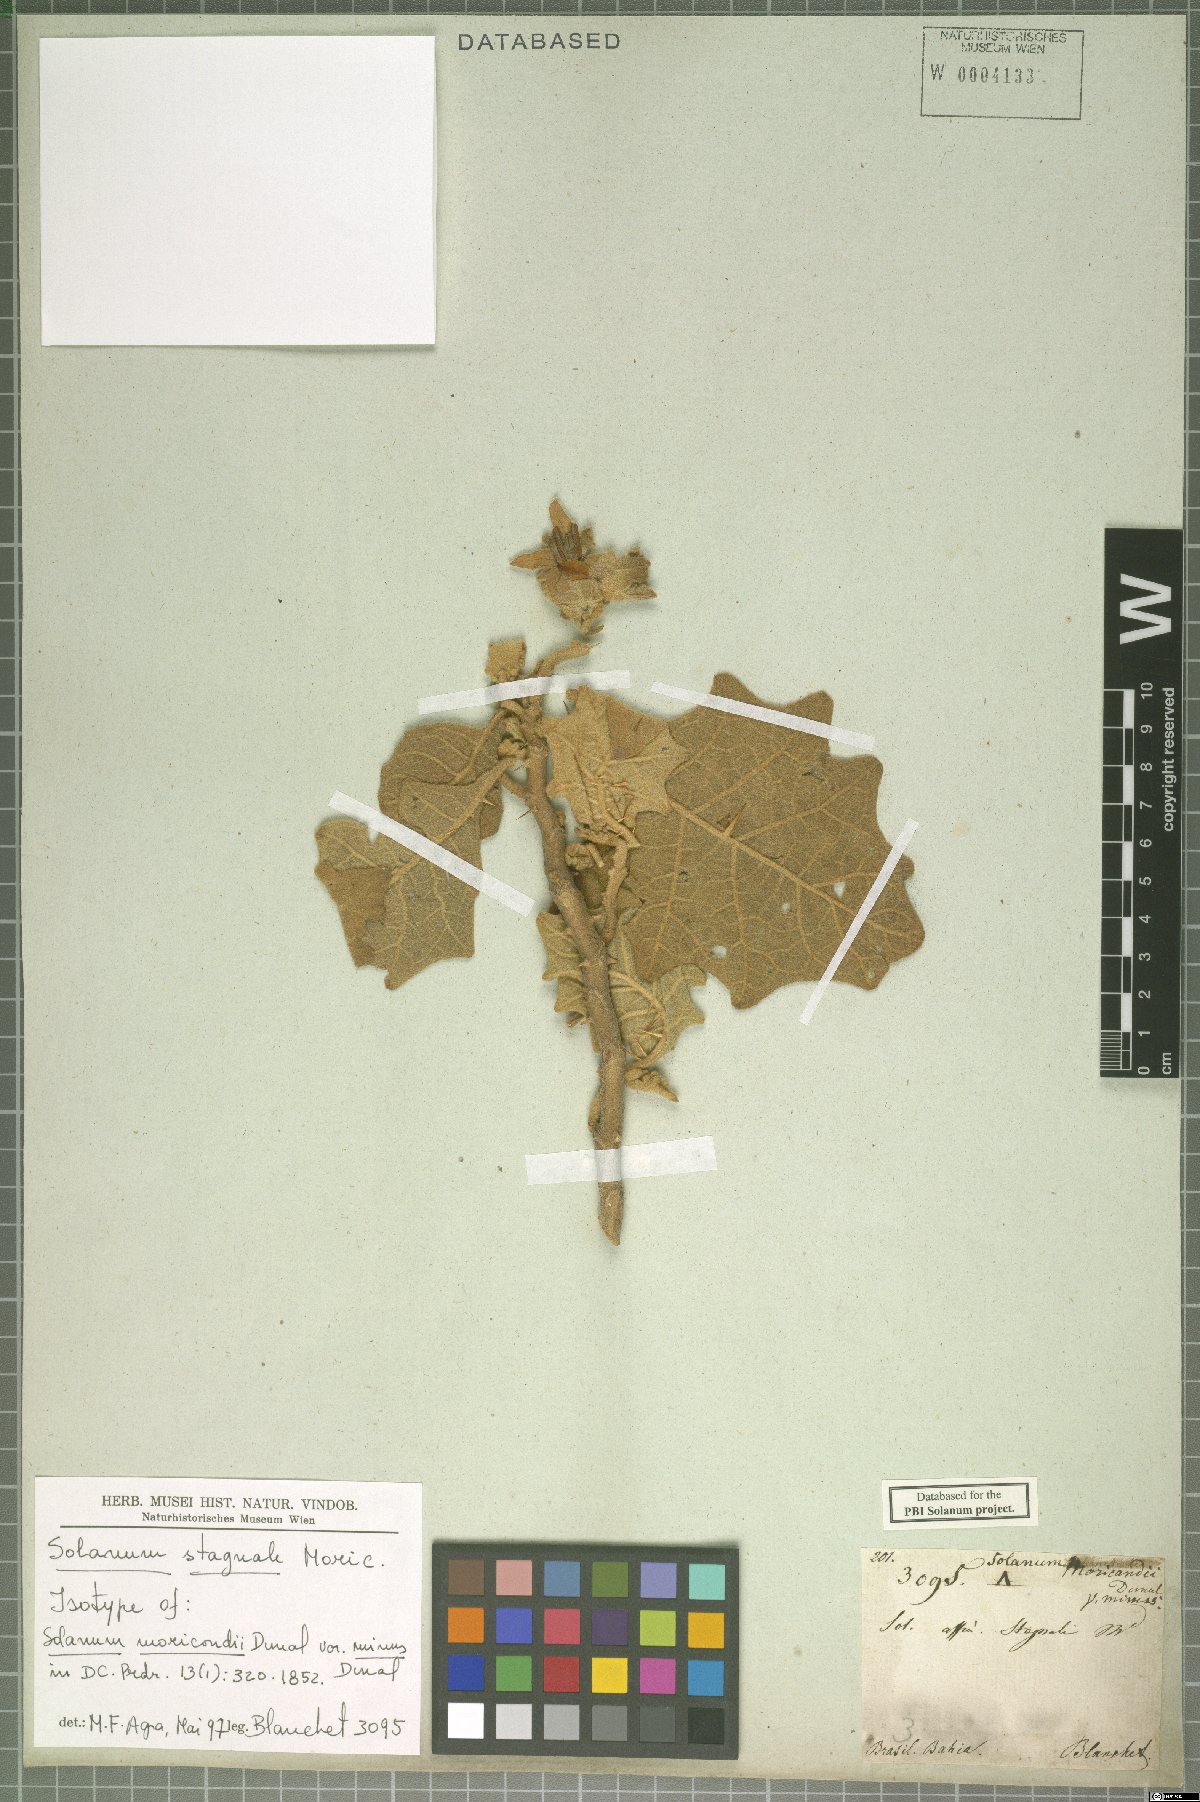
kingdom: Plantae
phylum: Tracheophyta
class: Magnoliopsida
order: Solanales
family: Solanaceae
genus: Solanum
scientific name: Solanum stagnale
